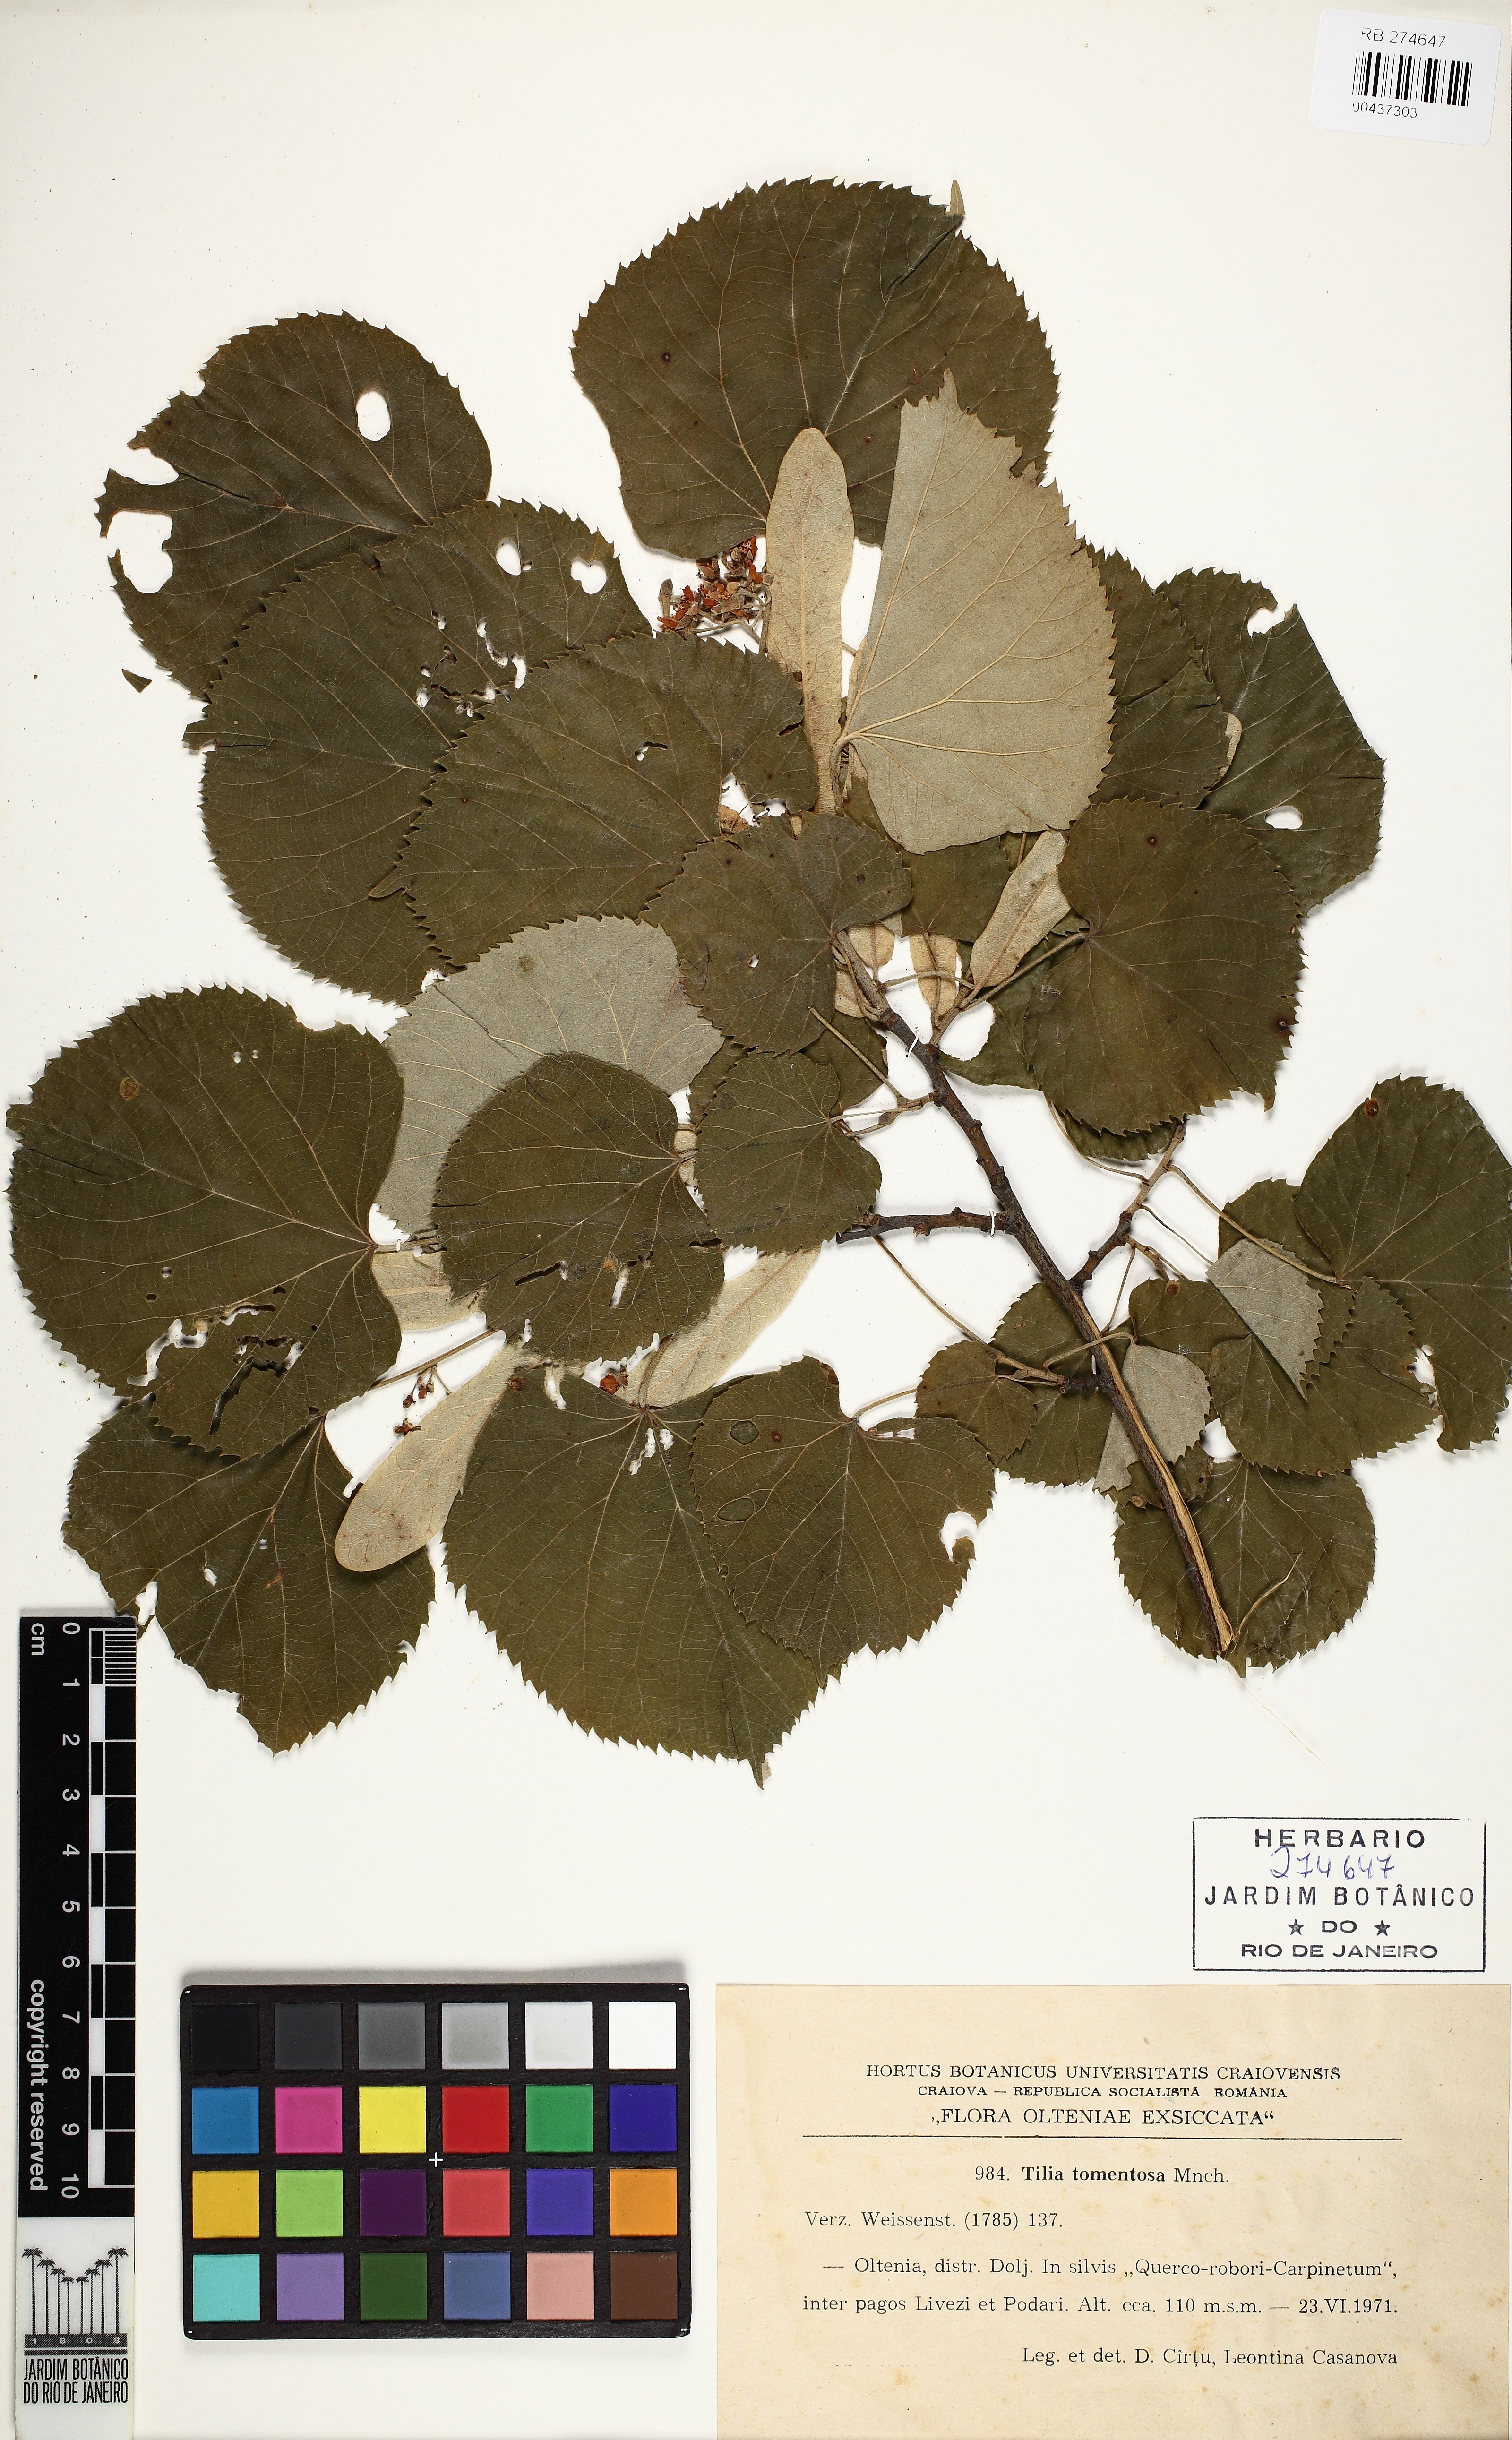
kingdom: Plantae
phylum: Tracheophyta
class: Magnoliopsida
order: Malvales
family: Malvaceae
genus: Tilia
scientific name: Tilia tomentosa
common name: Silver lime
